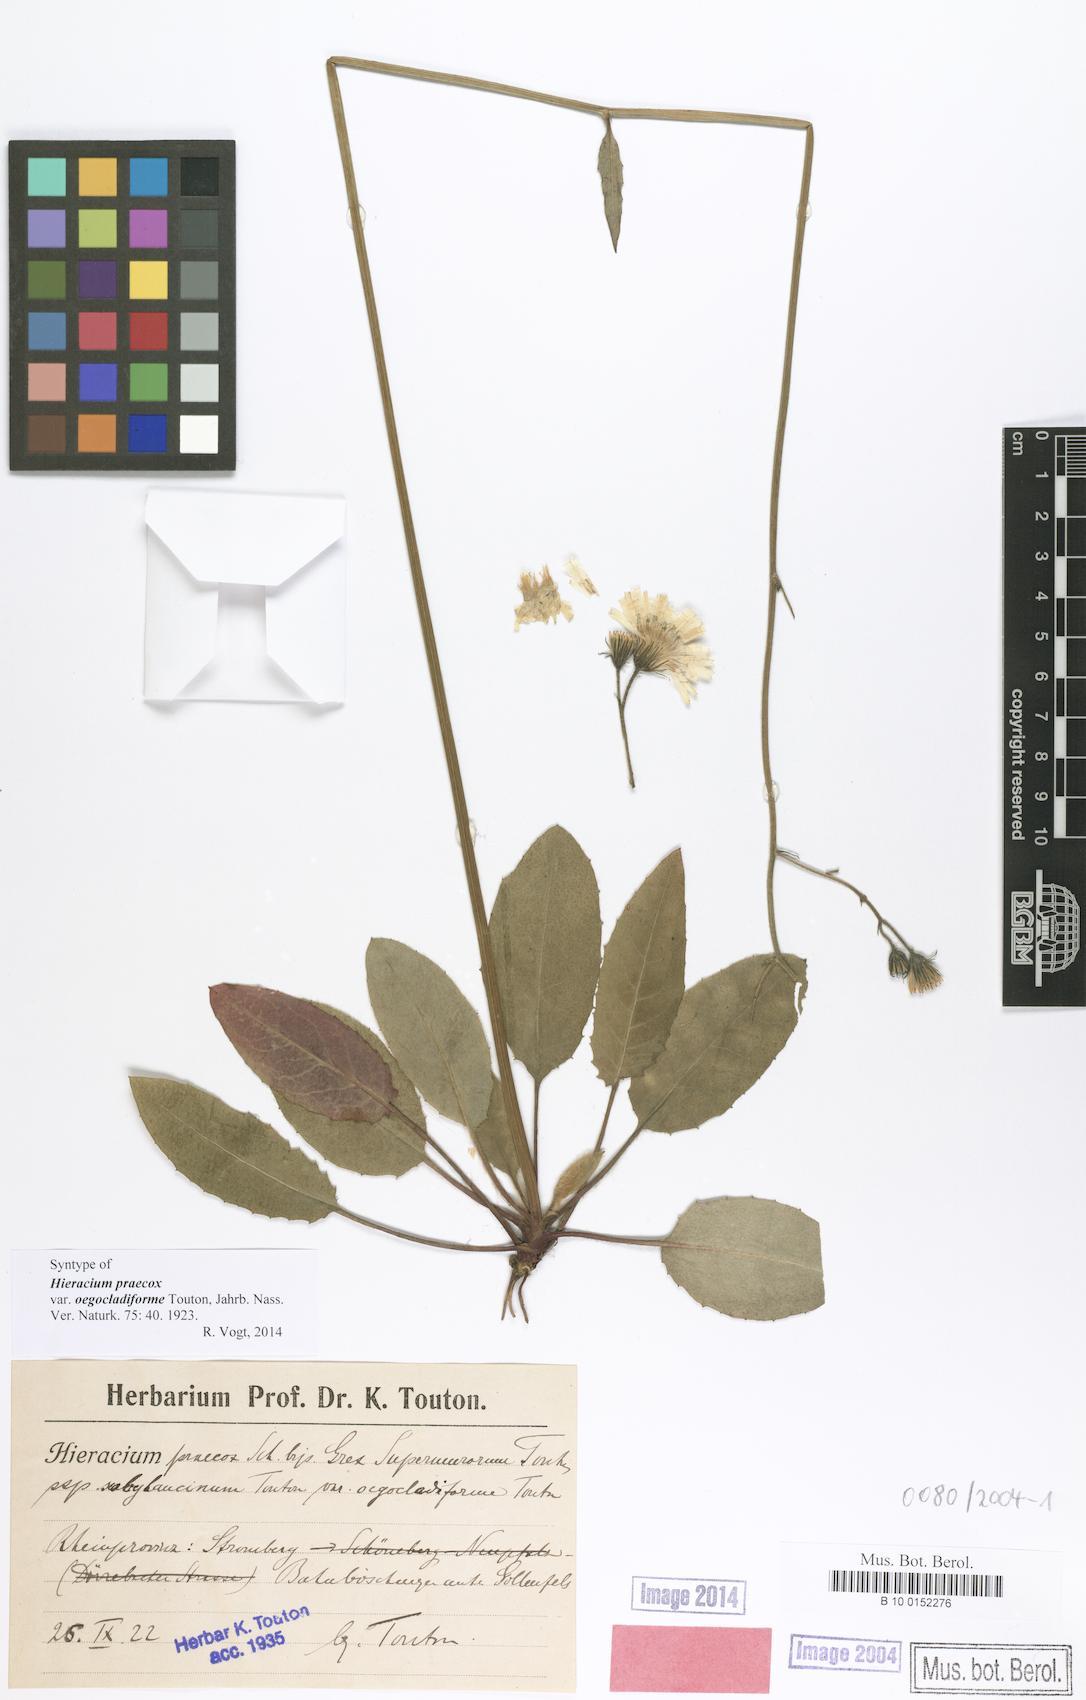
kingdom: Plantae
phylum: Tracheophyta
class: Magnoliopsida
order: Asterales
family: Asteraceae
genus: Hieracium
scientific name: Hieracium praecox
